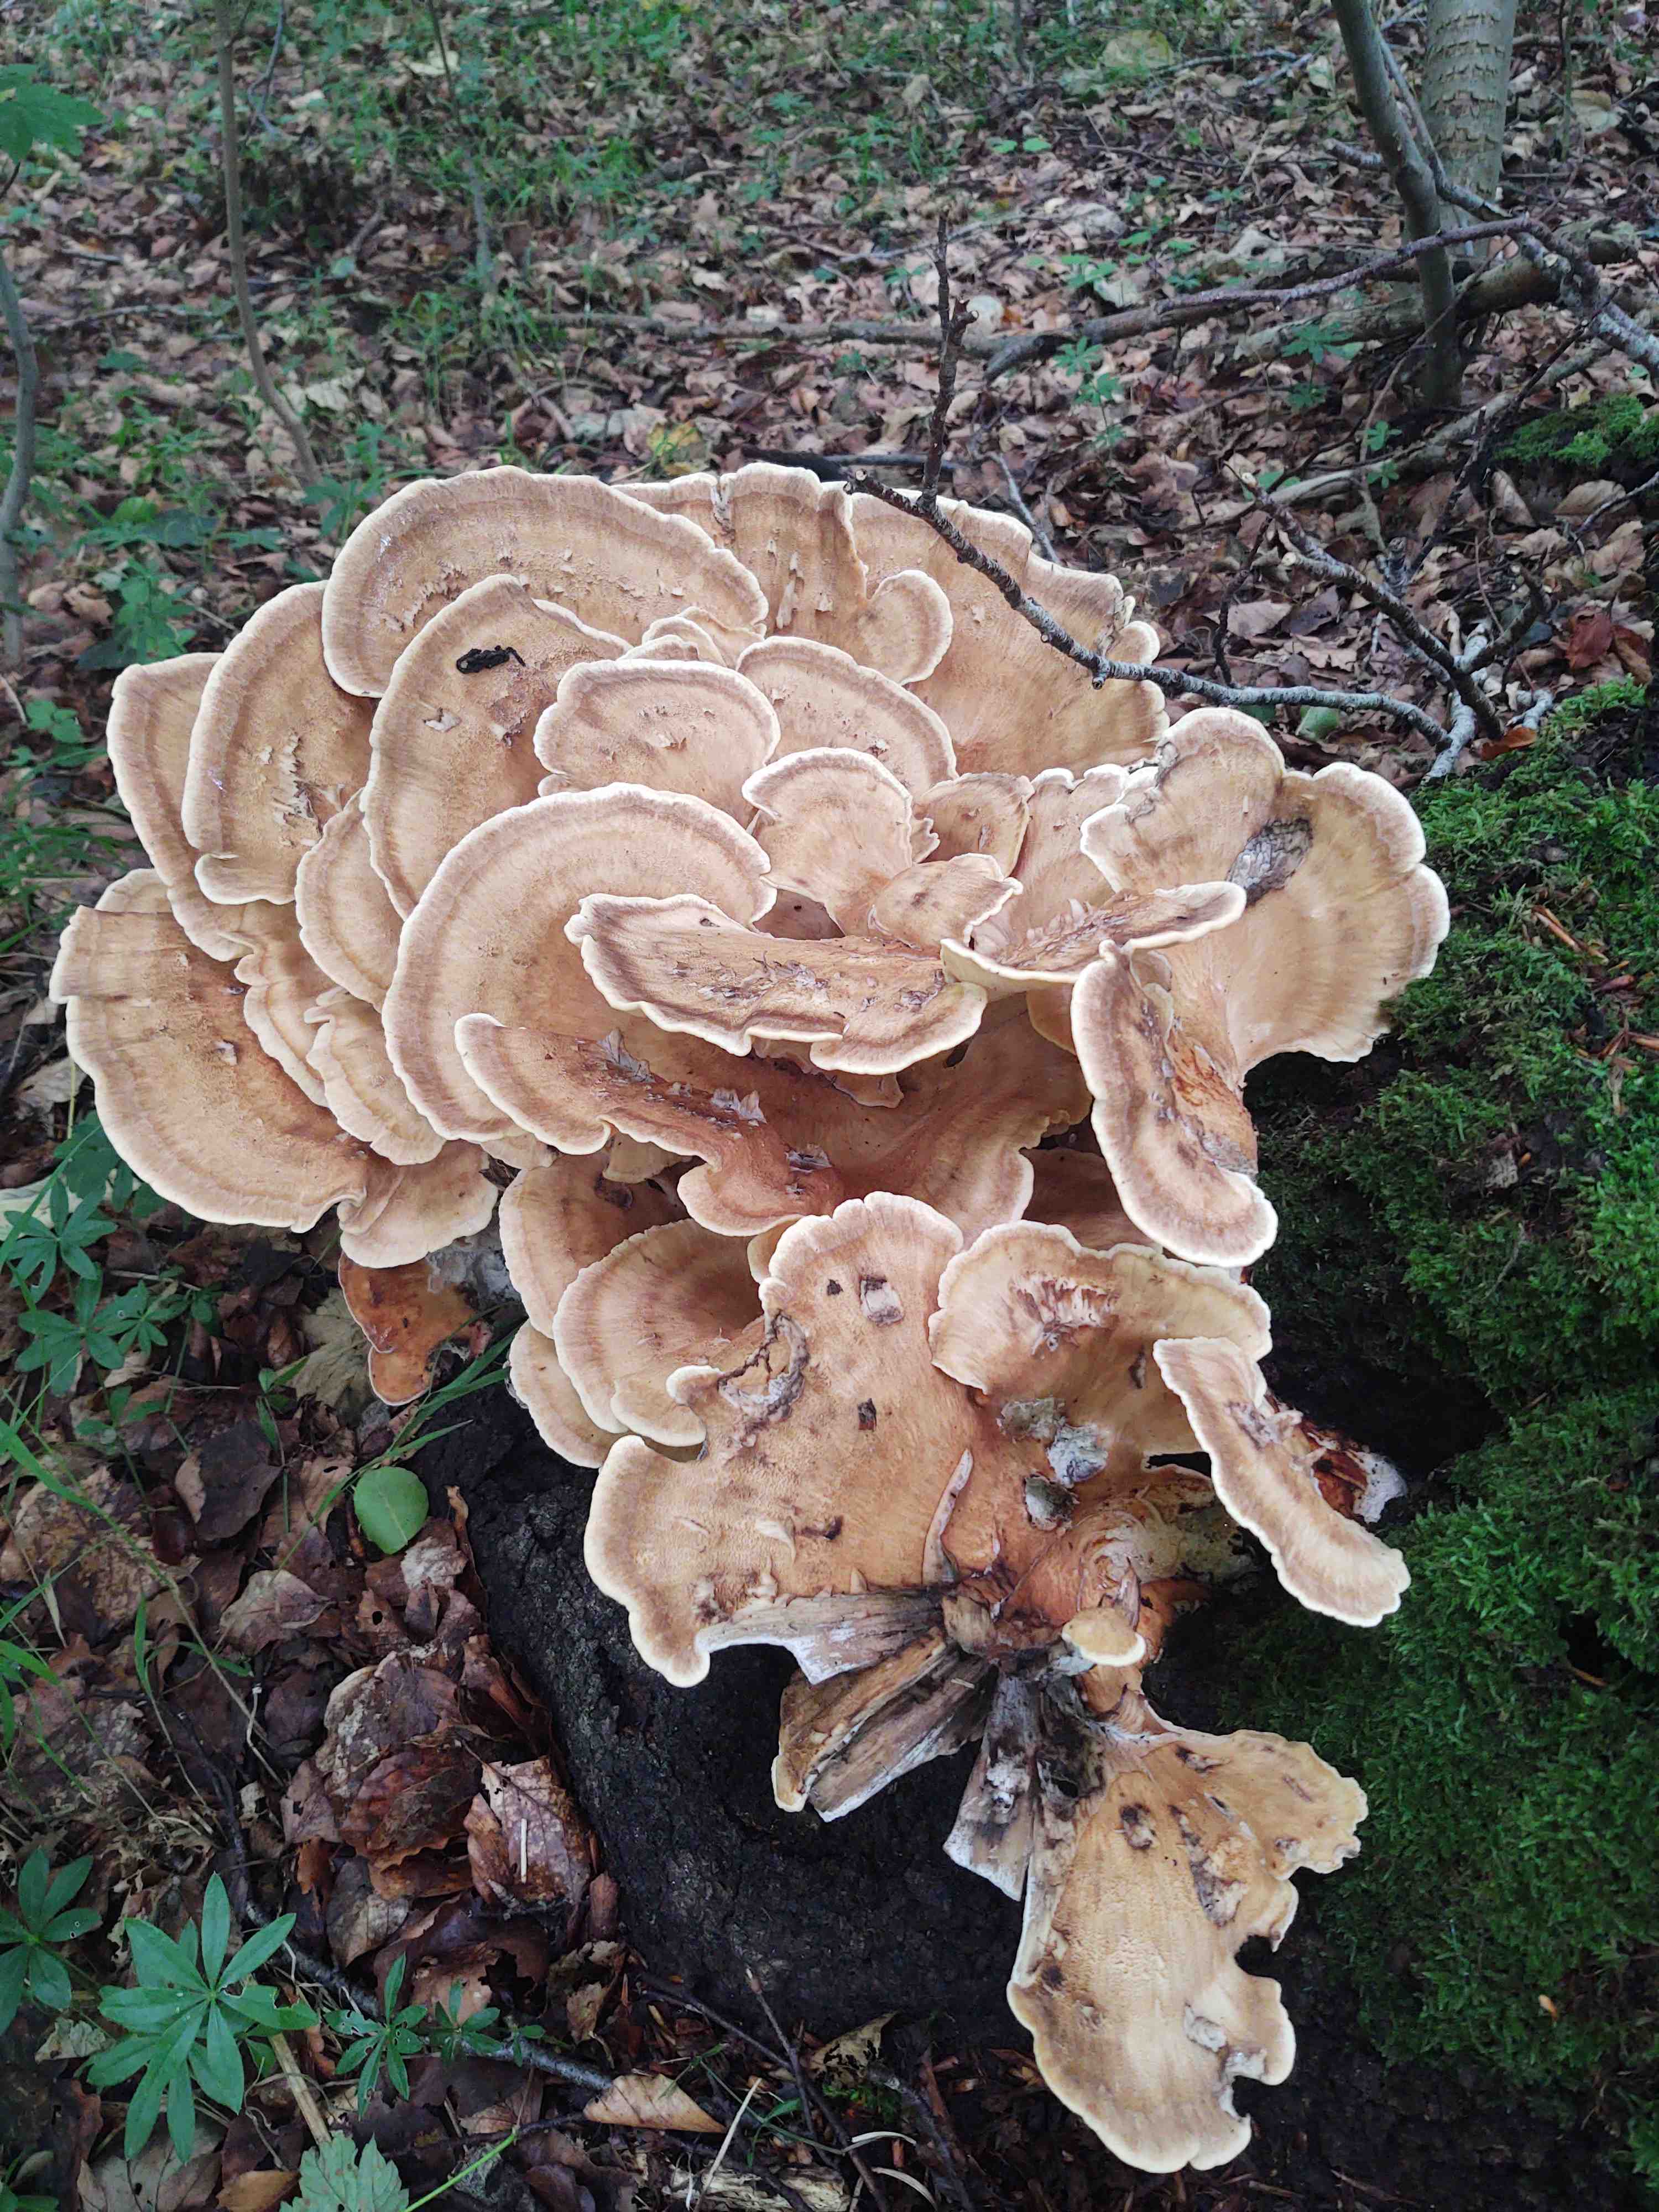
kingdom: Fungi
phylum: Basidiomycota
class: Agaricomycetes
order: Polyporales
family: Meripilaceae
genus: Meripilus
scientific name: Meripilus giganteus
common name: kæmpeporesvamp
